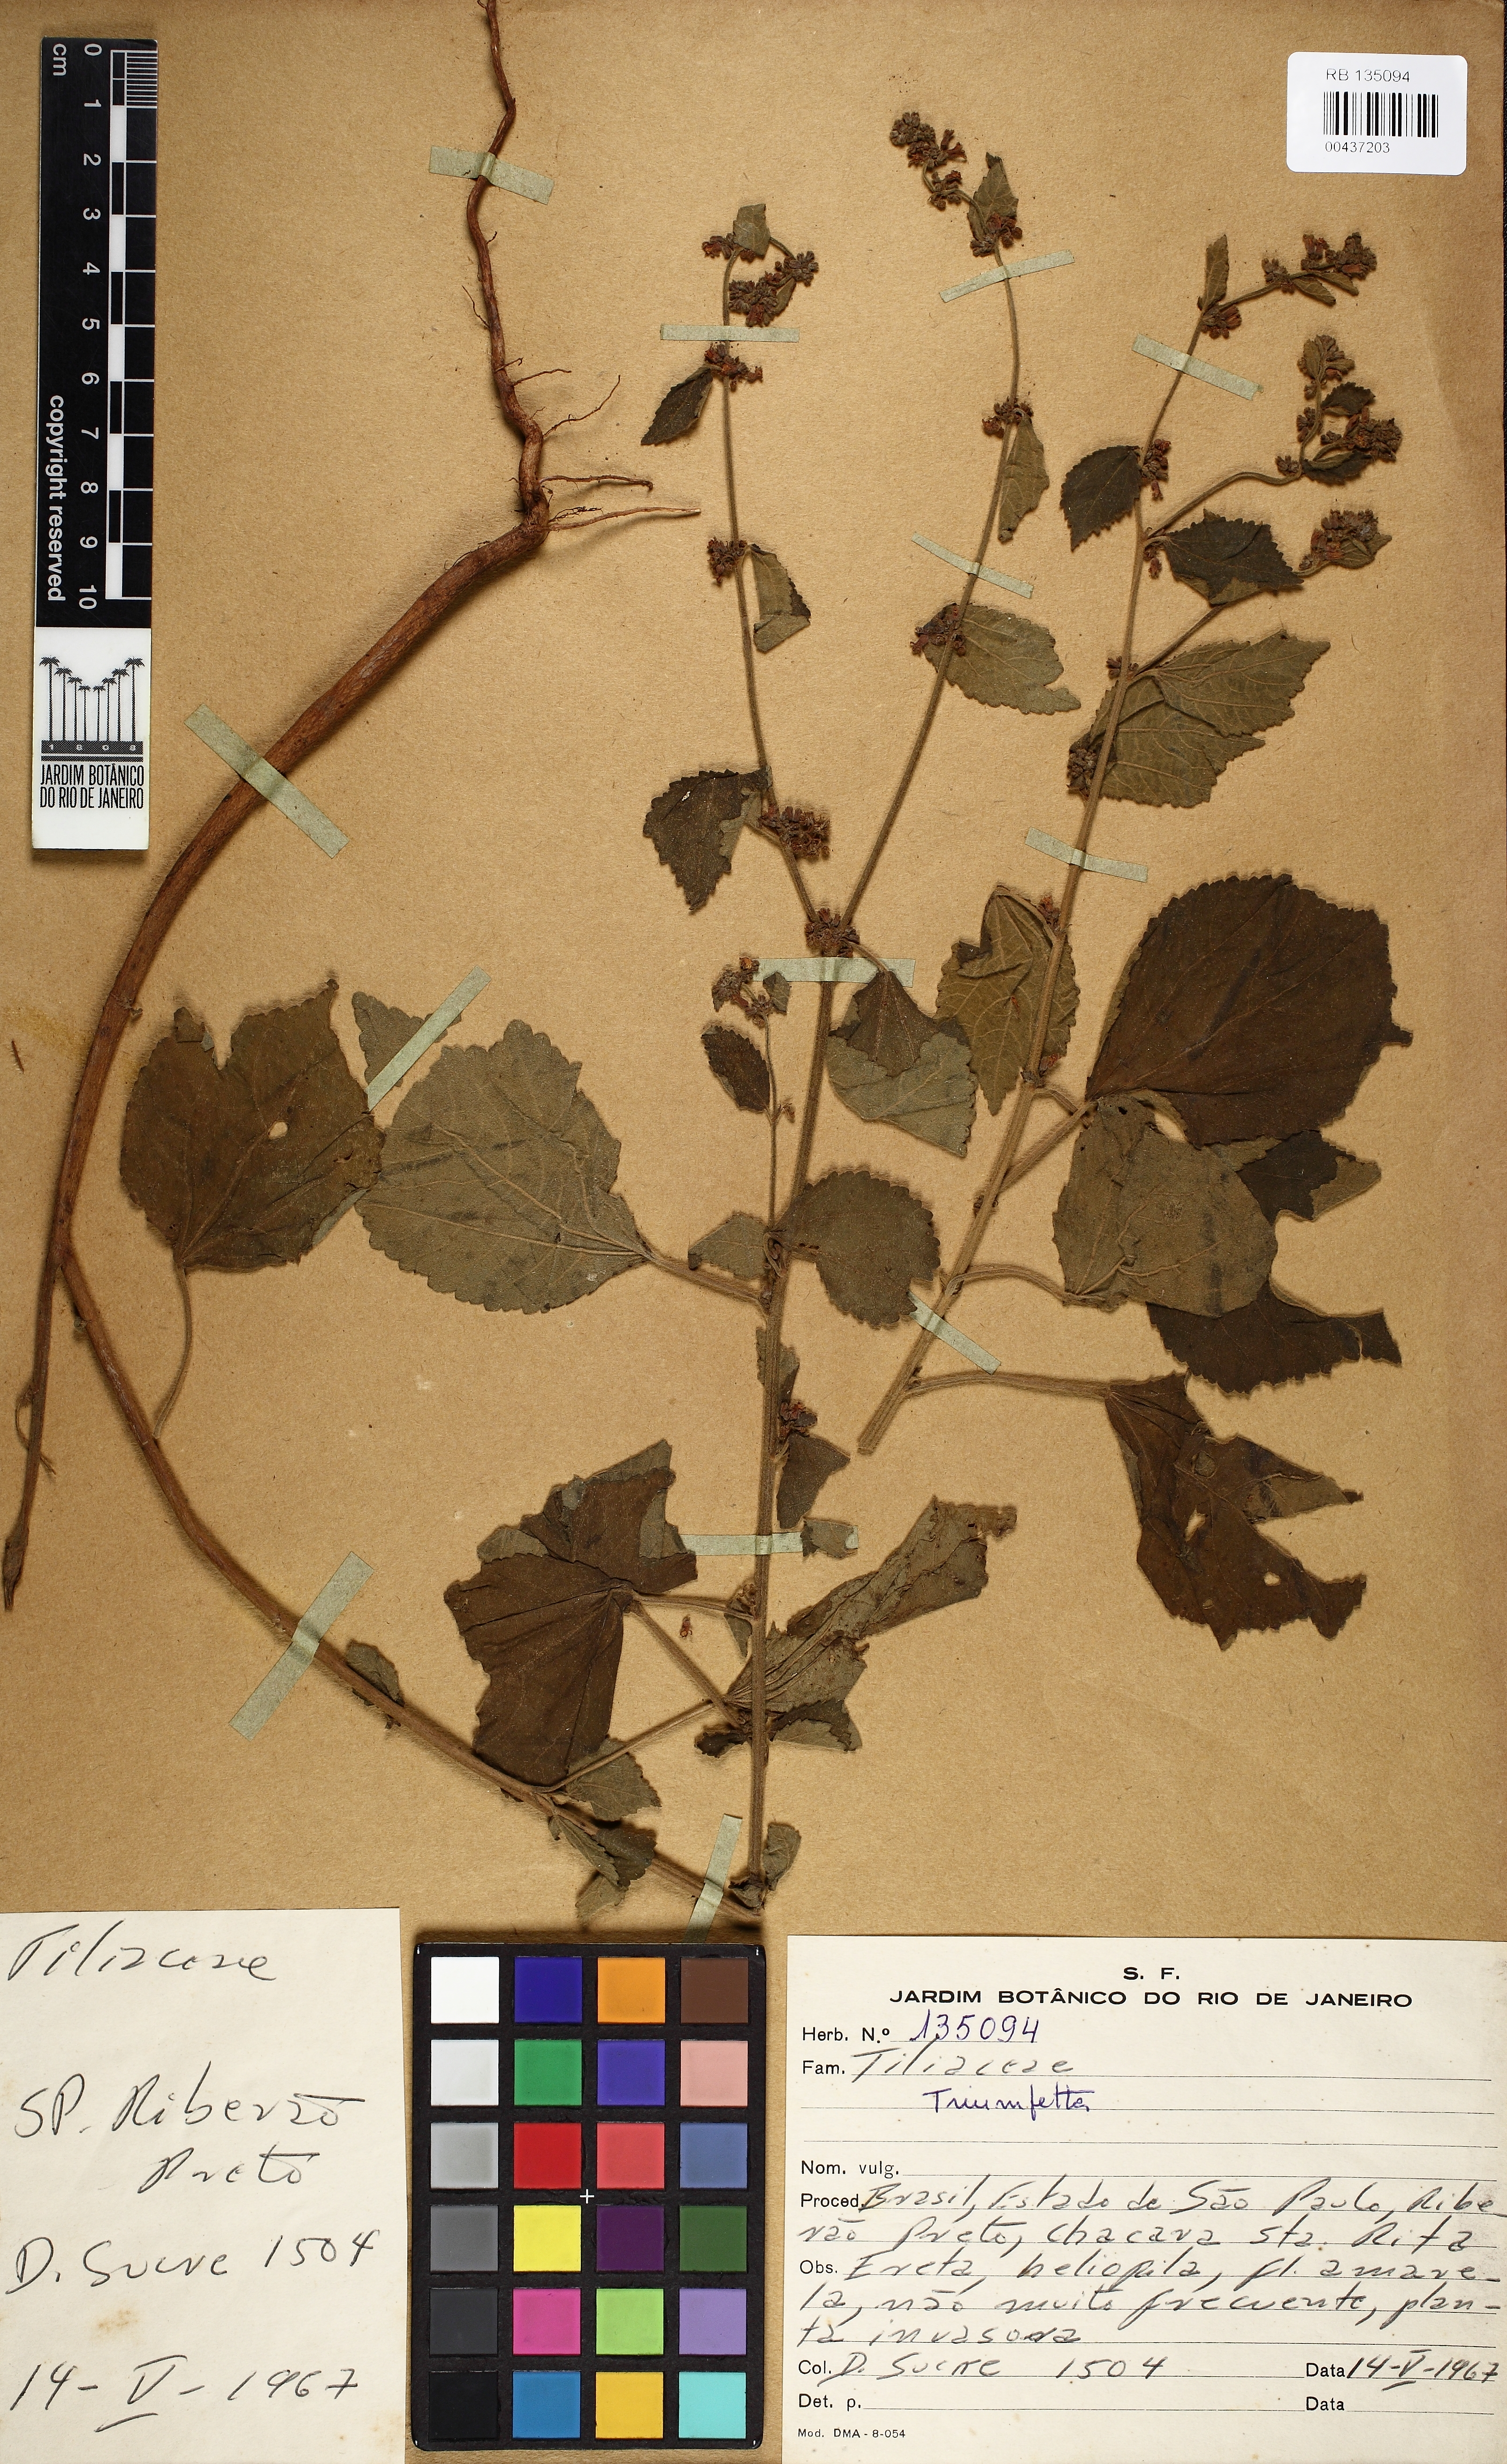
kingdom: Plantae
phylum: Tracheophyta
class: Magnoliopsida
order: Malvales
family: Malvaceae
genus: Triumfetta
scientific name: Triumfetta
